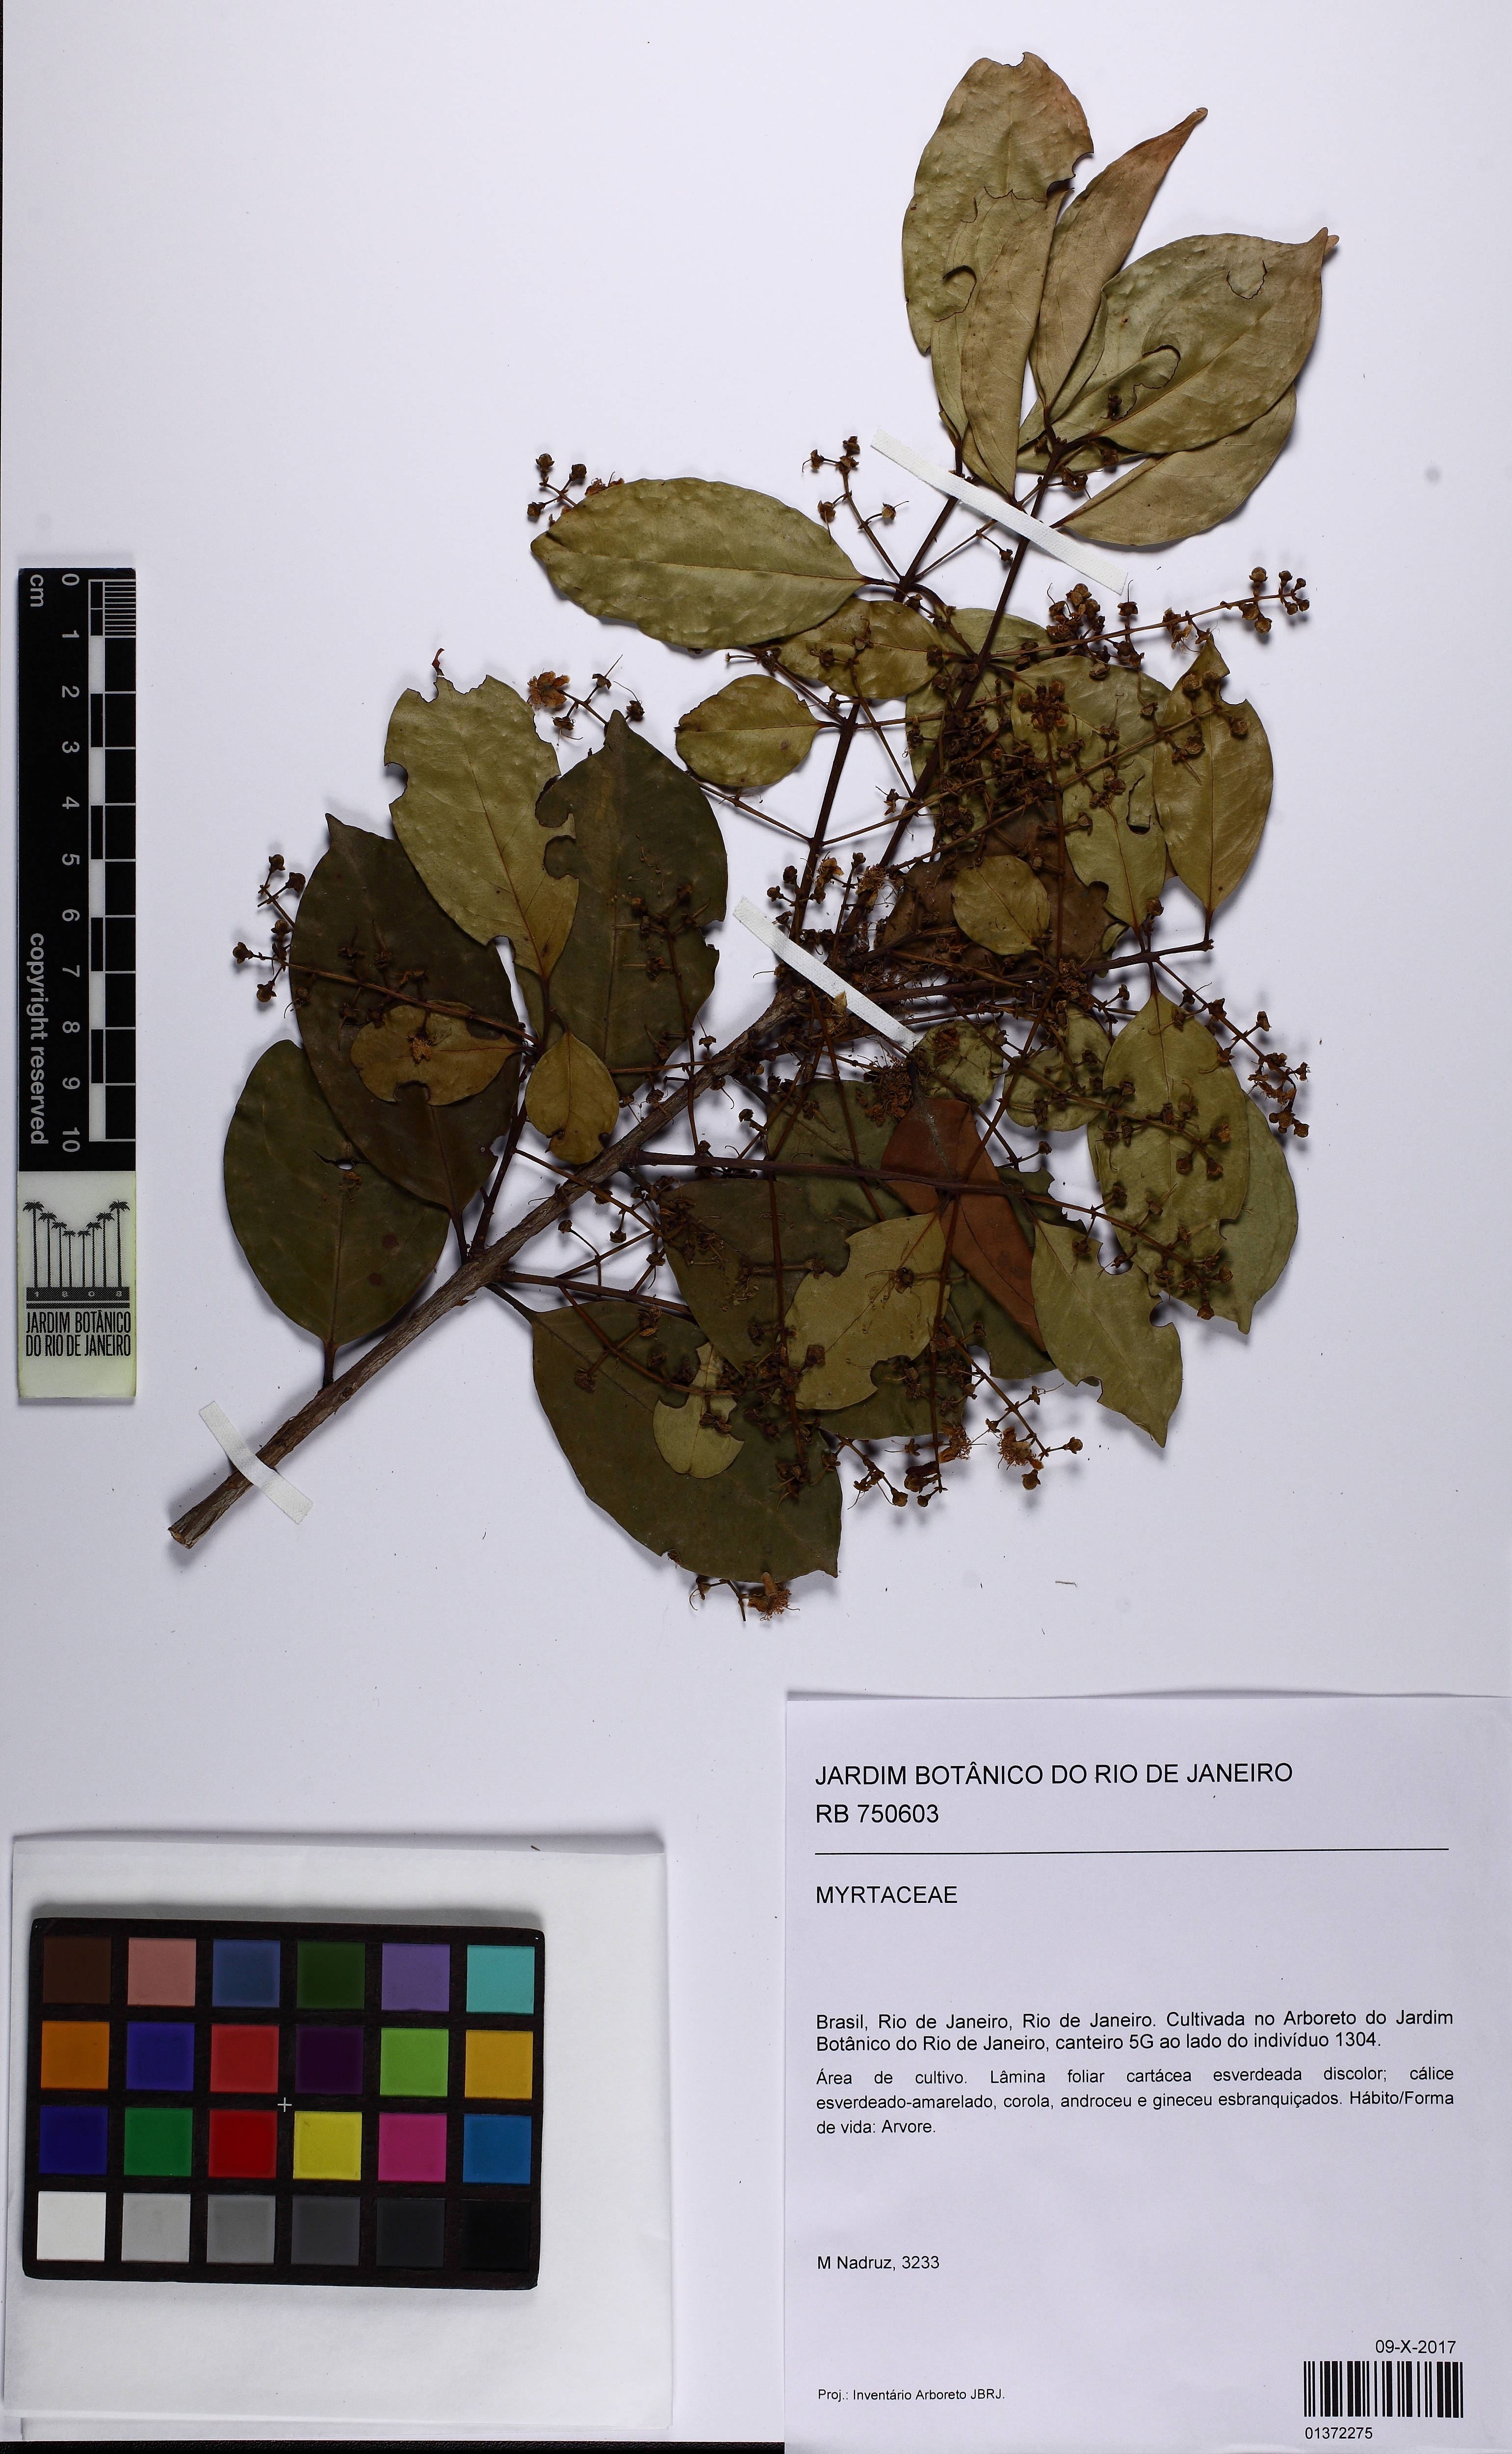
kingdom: Plantae
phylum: Tracheophyta
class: Magnoliopsida
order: Myrtales
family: Myrtaceae
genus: Eugenia
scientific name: Eugenia florida
